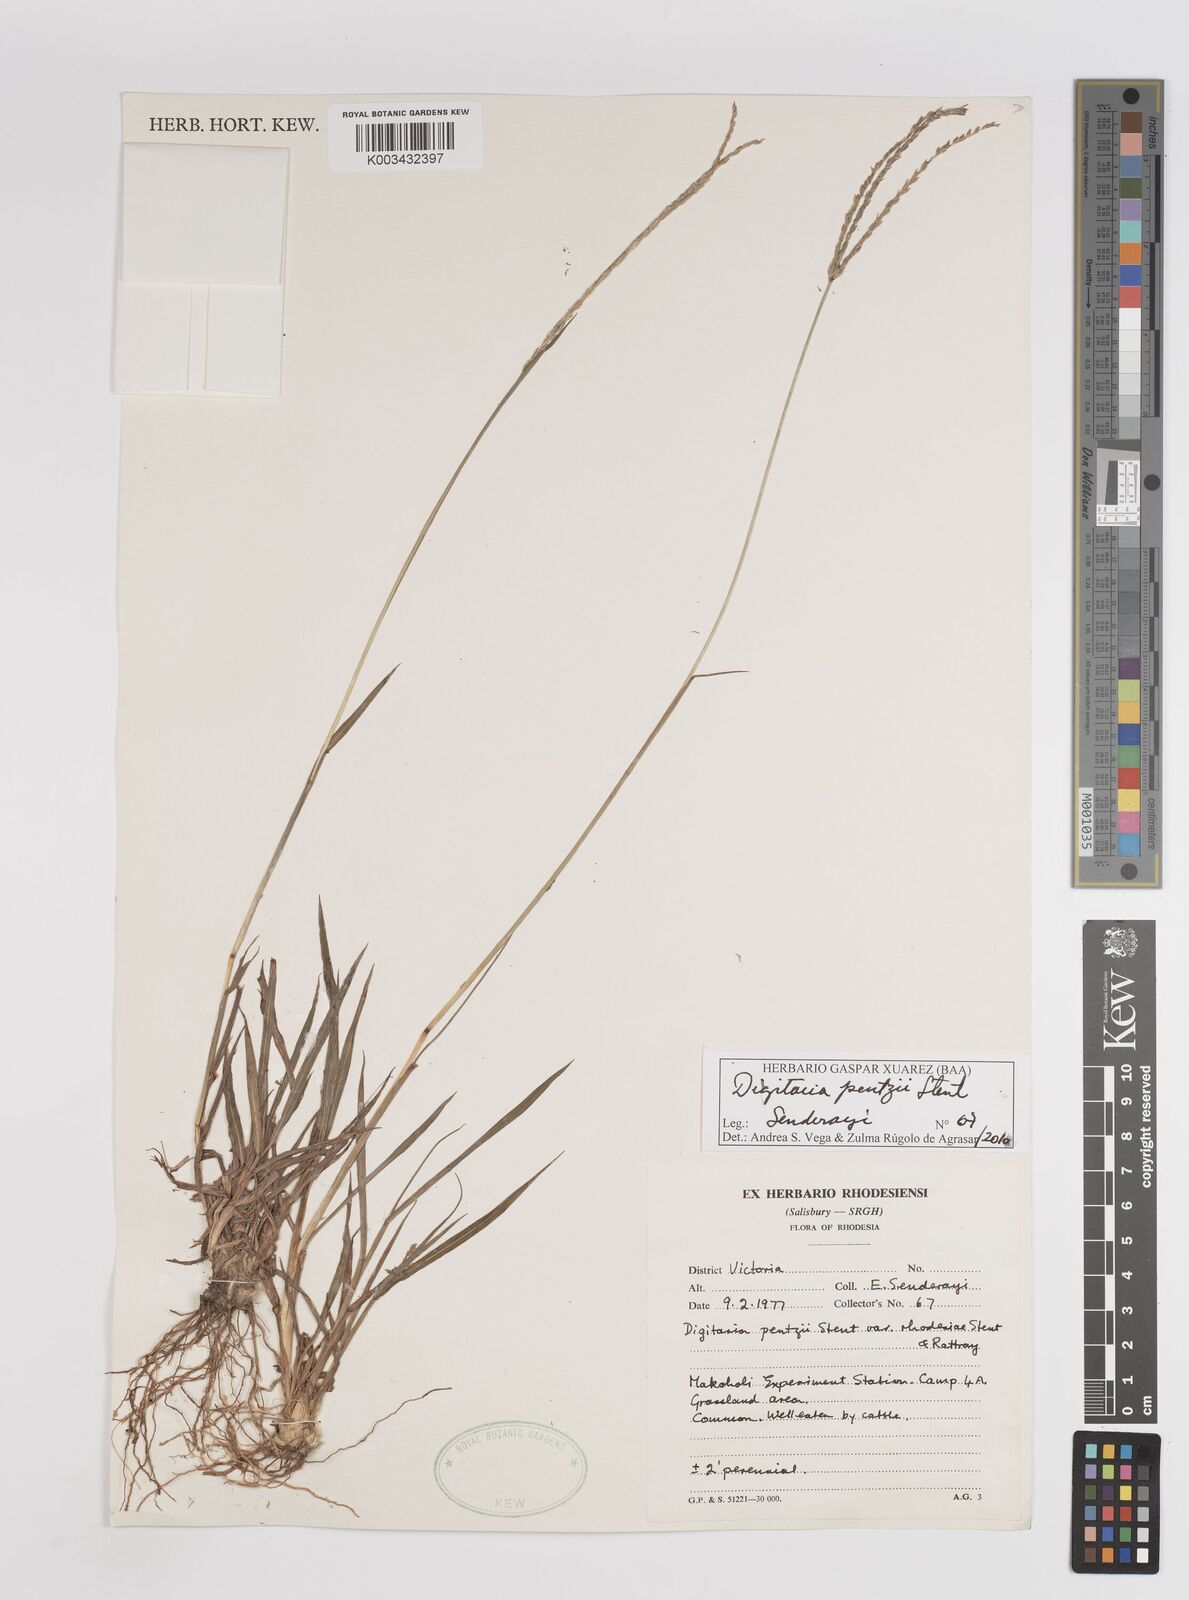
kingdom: Plantae
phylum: Tracheophyta
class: Liliopsida
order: Poales
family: Poaceae
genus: Digitaria
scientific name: Digitaria eriantha
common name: Digitgrass
